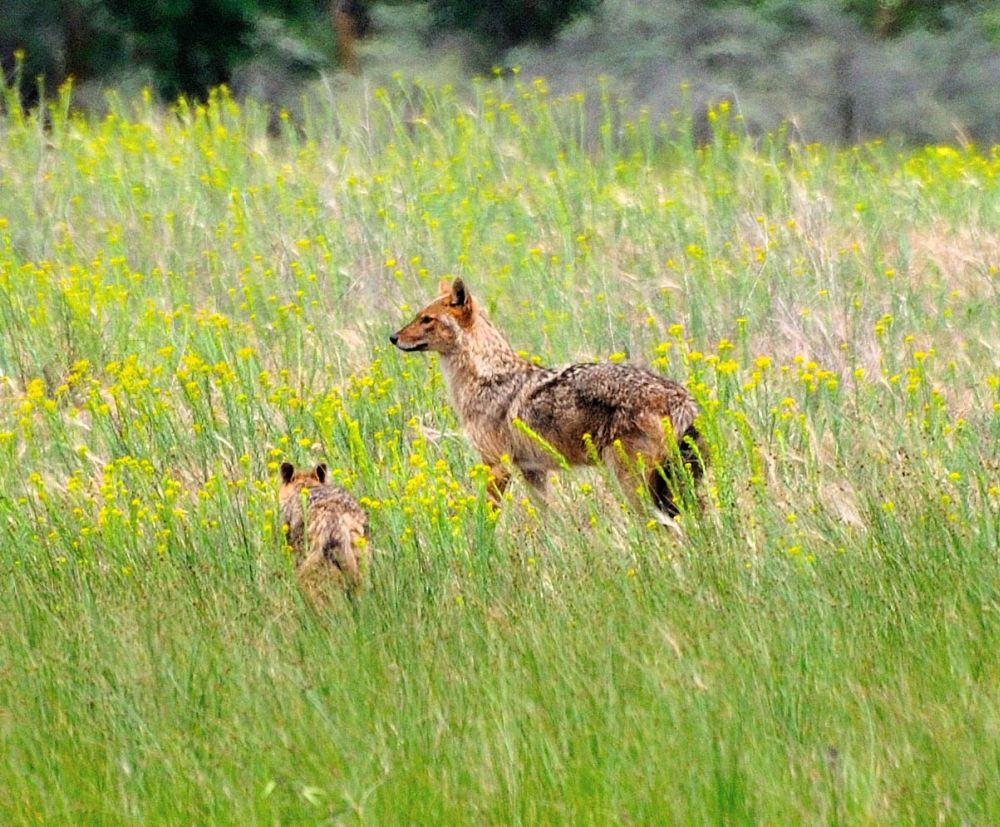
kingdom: Animalia
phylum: Chordata
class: Mammalia
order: Carnivora
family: Canidae
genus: Canis
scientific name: Canis aureus
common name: Golden jackal
